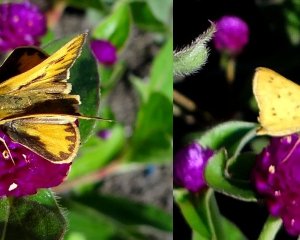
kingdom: Animalia
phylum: Arthropoda
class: Insecta
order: Lepidoptera
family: Hesperiidae
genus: Hylephila
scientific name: Hylephila phyleus
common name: Fiery Skipper
